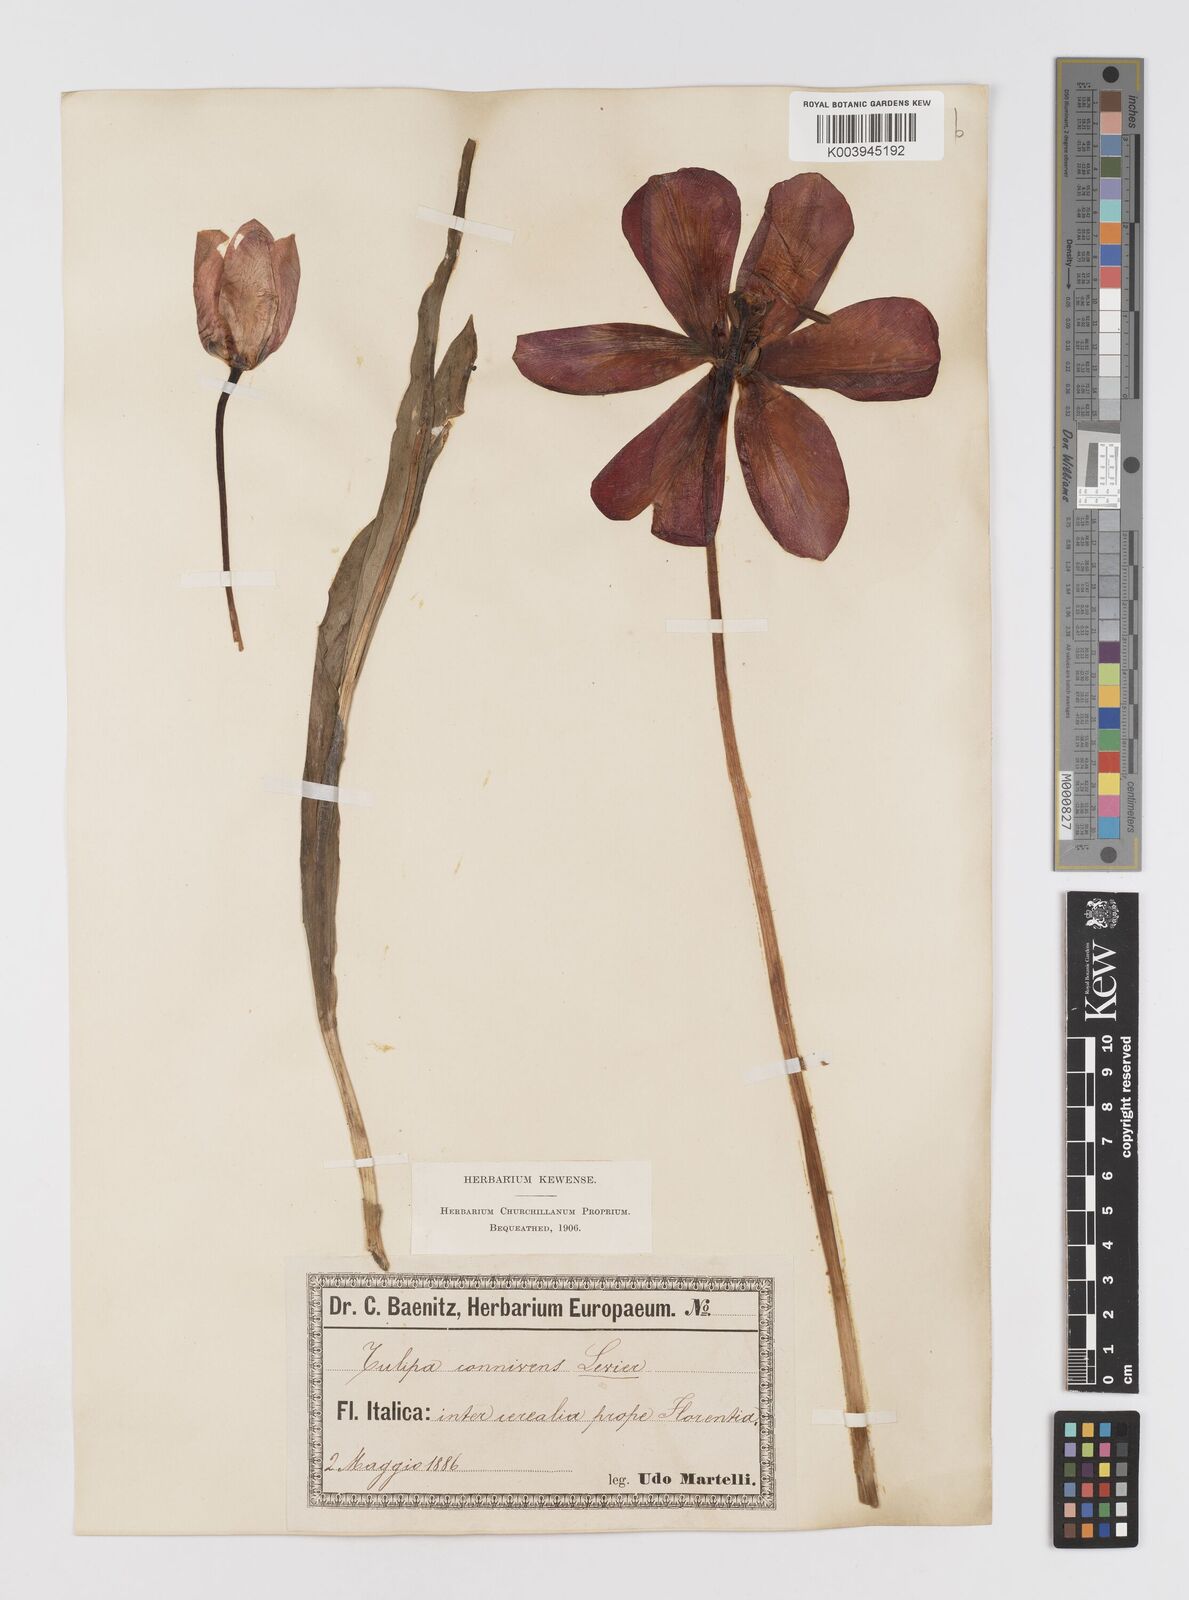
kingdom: Plantae
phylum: Tracheophyta
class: Liliopsida
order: Liliales
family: Liliaceae
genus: Tulipa
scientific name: Tulipa gesneriana
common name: Garden tulip
